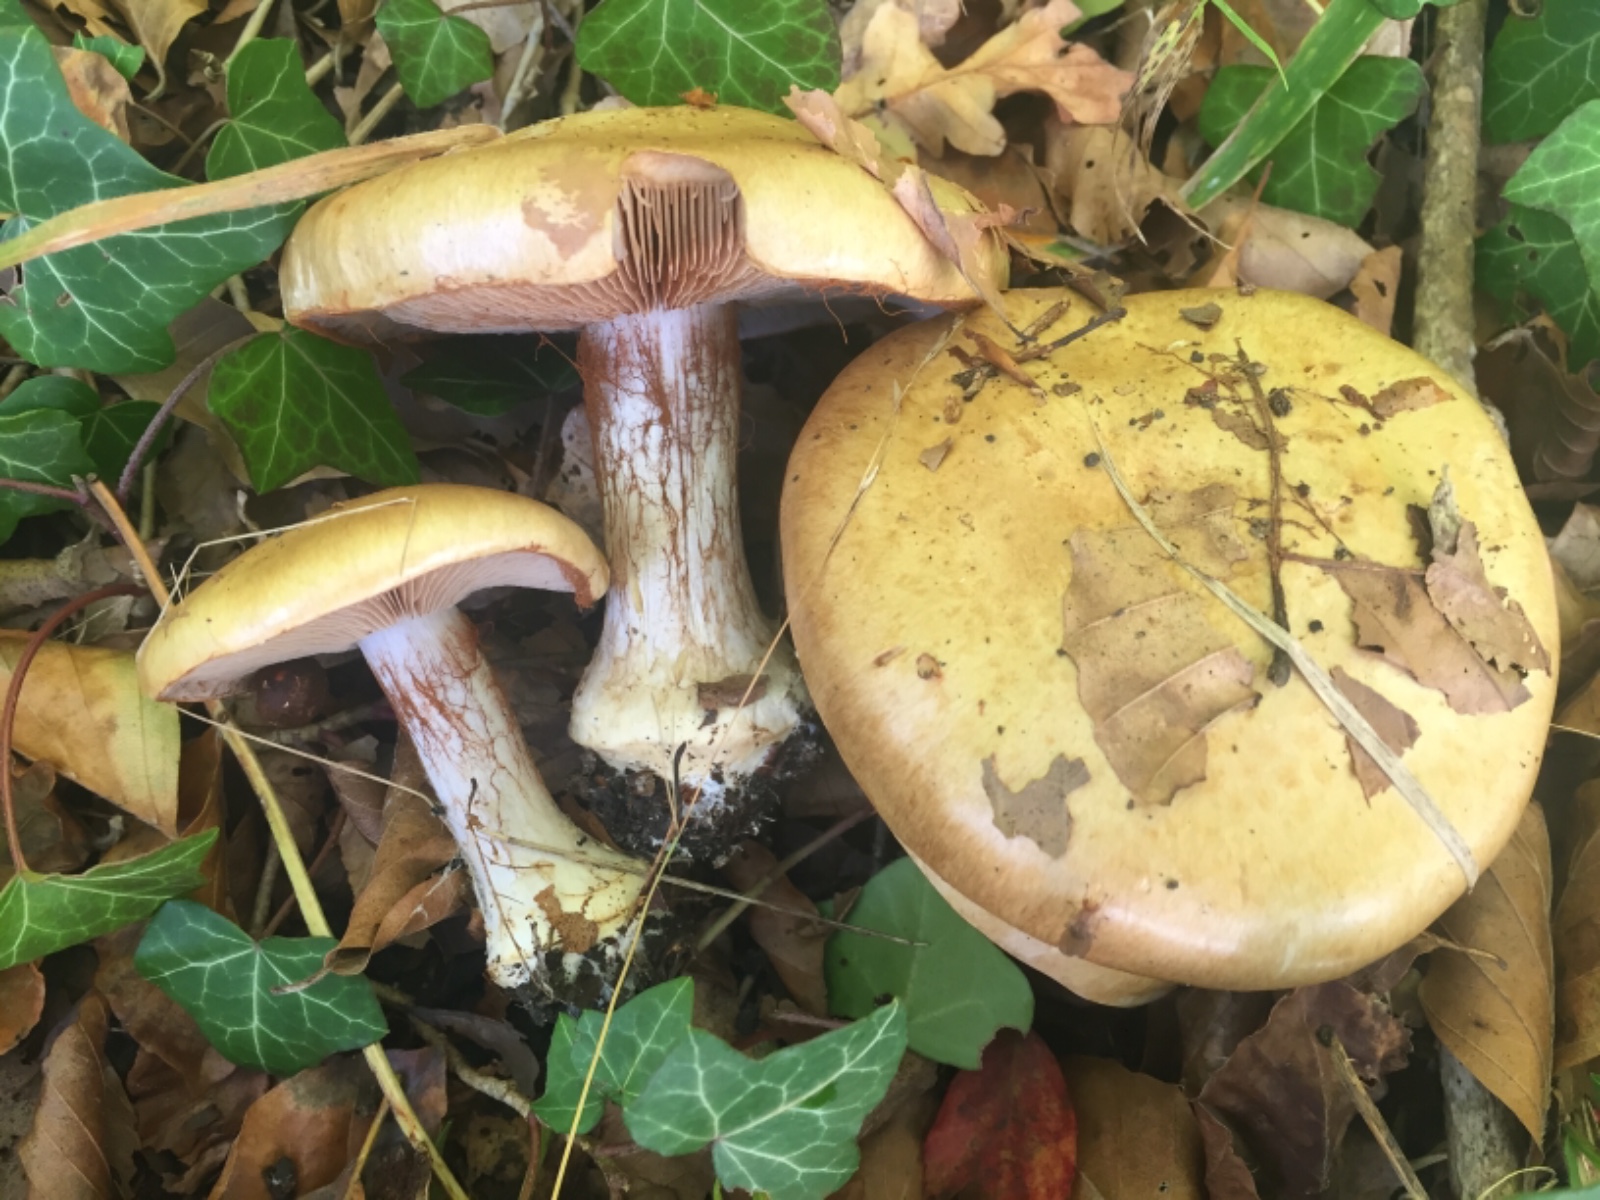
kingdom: Fungi
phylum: Basidiomycota
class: Agaricomycetes
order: Agaricales
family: Cortinariaceae
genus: Cortinarius
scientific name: Cortinarius anserinus
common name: bøge-slørhat
